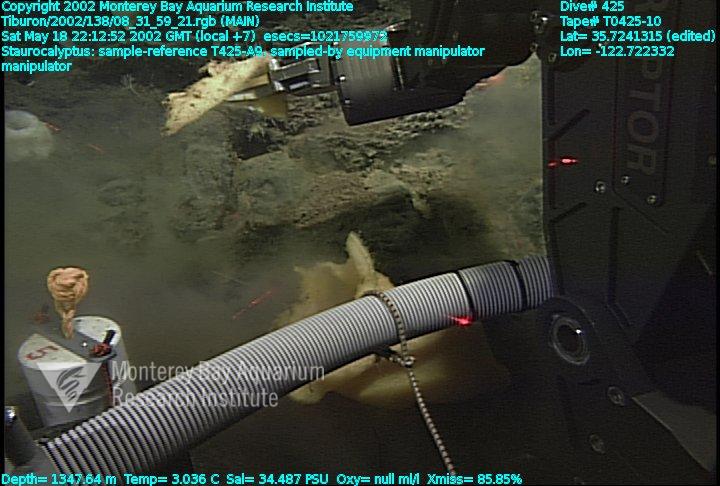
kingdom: Animalia
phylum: Porifera
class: Hexactinellida
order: Lyssacinosida
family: Rossellidae
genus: Staurocalyptus
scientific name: Staurocalyptus
